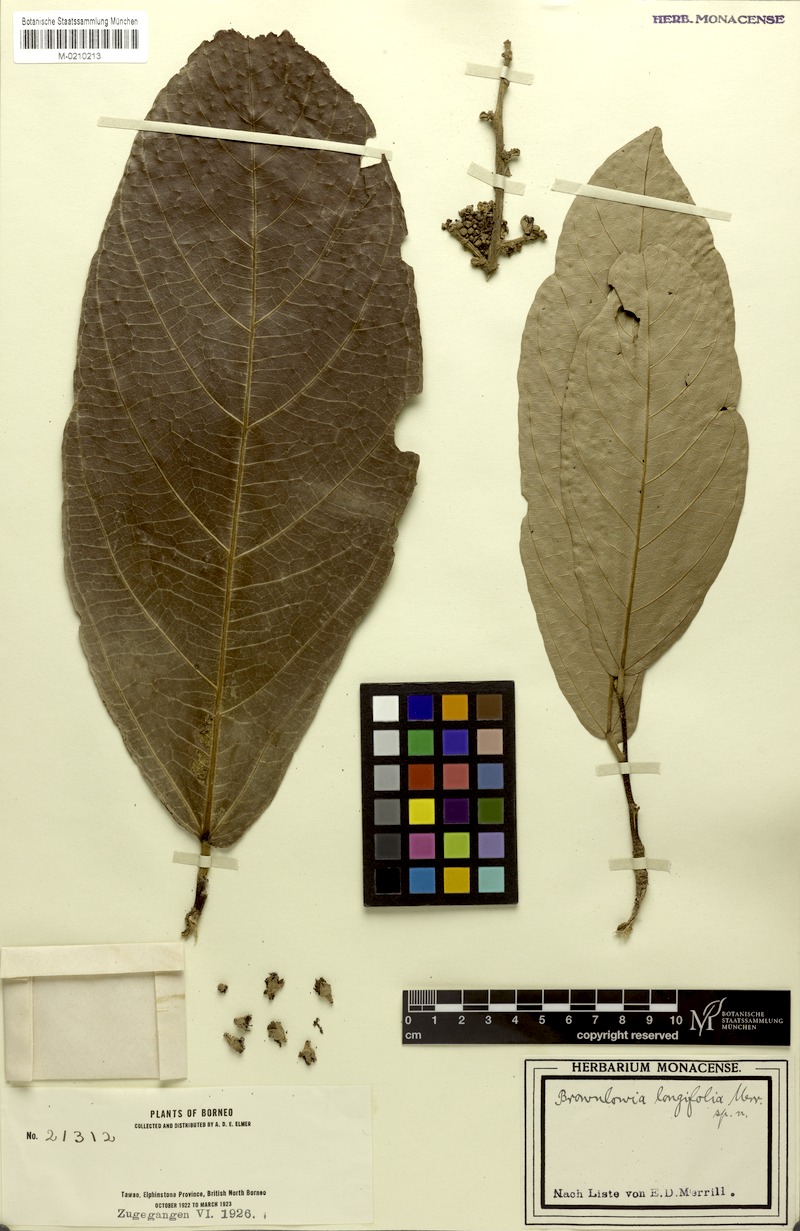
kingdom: Plantae
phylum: Tracheophyta
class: Magnoliopsida
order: Malvales
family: Malvaceae
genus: Diplodiscus
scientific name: Diplodiscus longifolius
